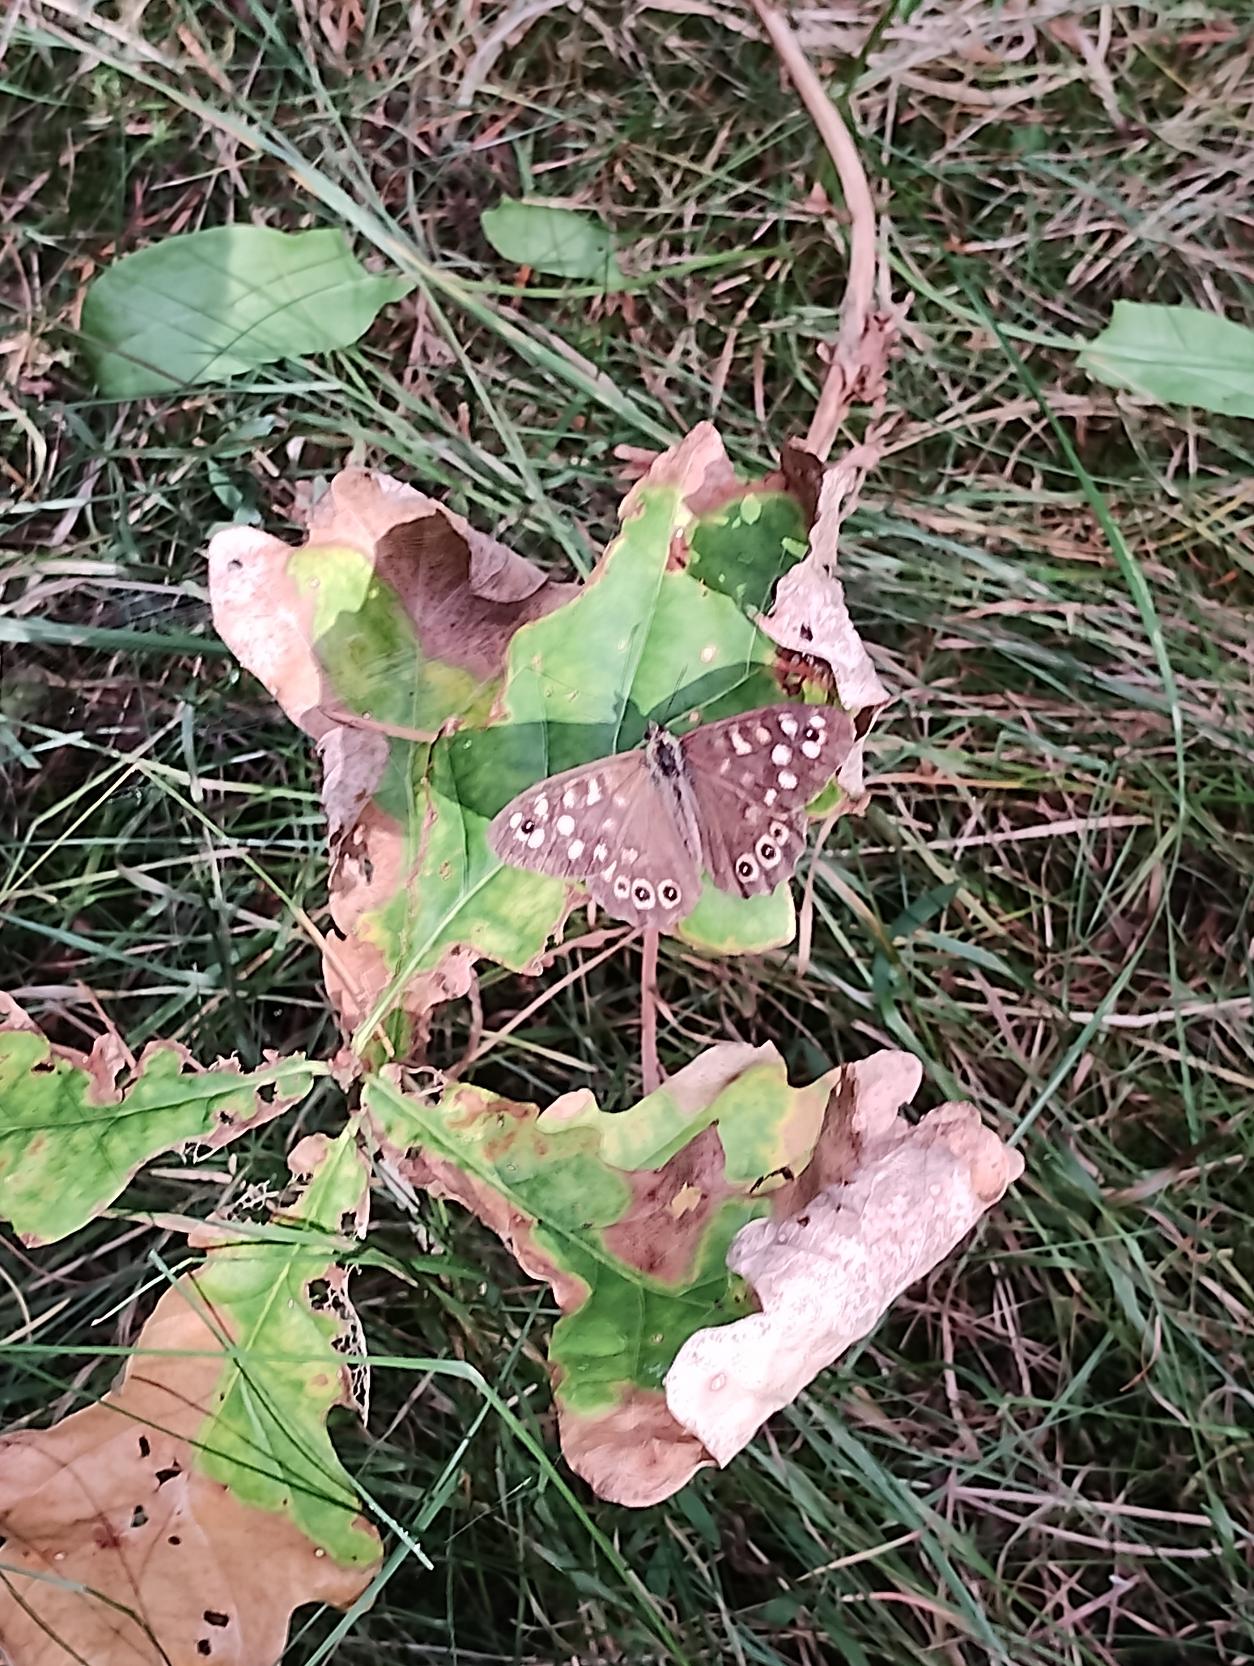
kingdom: Animalia
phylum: Arthropoda
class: Insecta
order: Lepidoptera
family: Nymphalidae
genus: Pararge
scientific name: Pararge aegeria
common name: Skovrandøje
